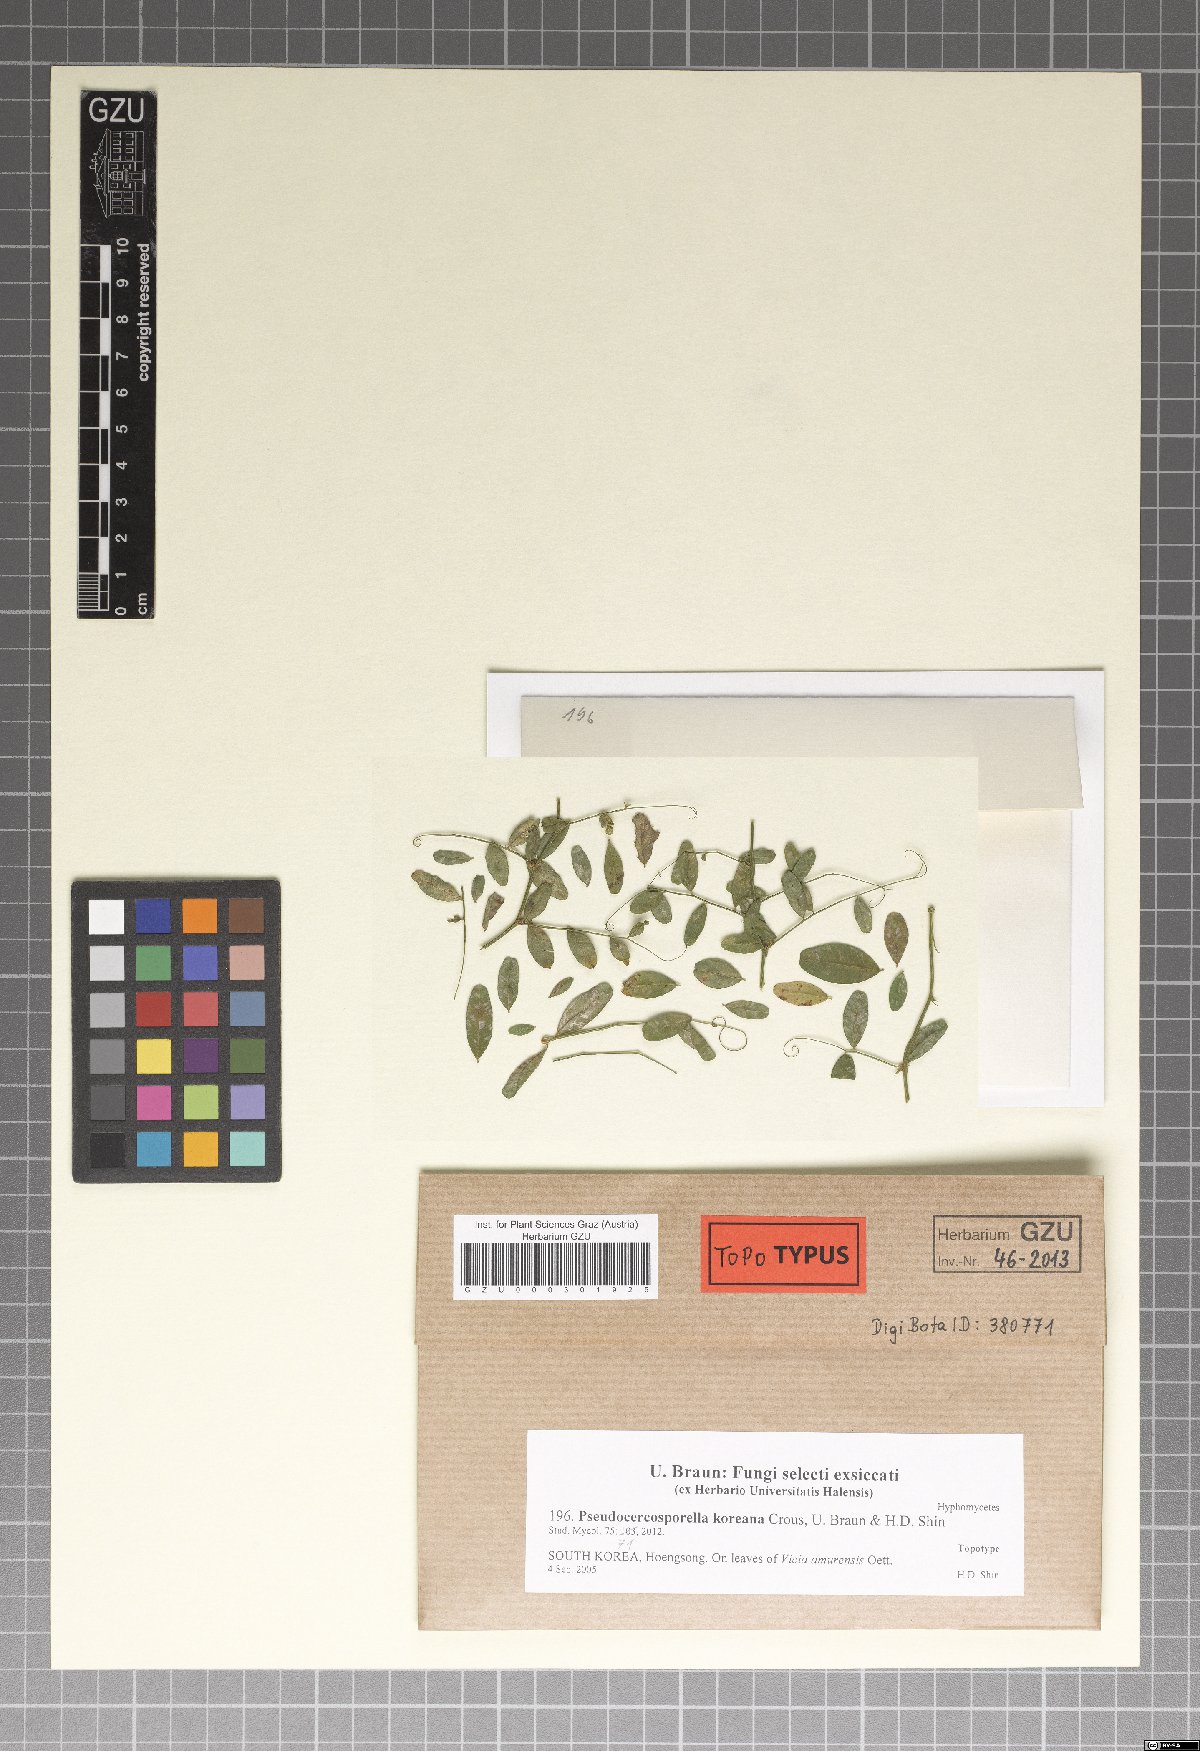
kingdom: Fungi
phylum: Ascomycota
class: Dothideomycetes
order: Mycosphaerellales
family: Mycosphaerellaceae
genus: Sphaerulina
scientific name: Sphaerulina koreana
